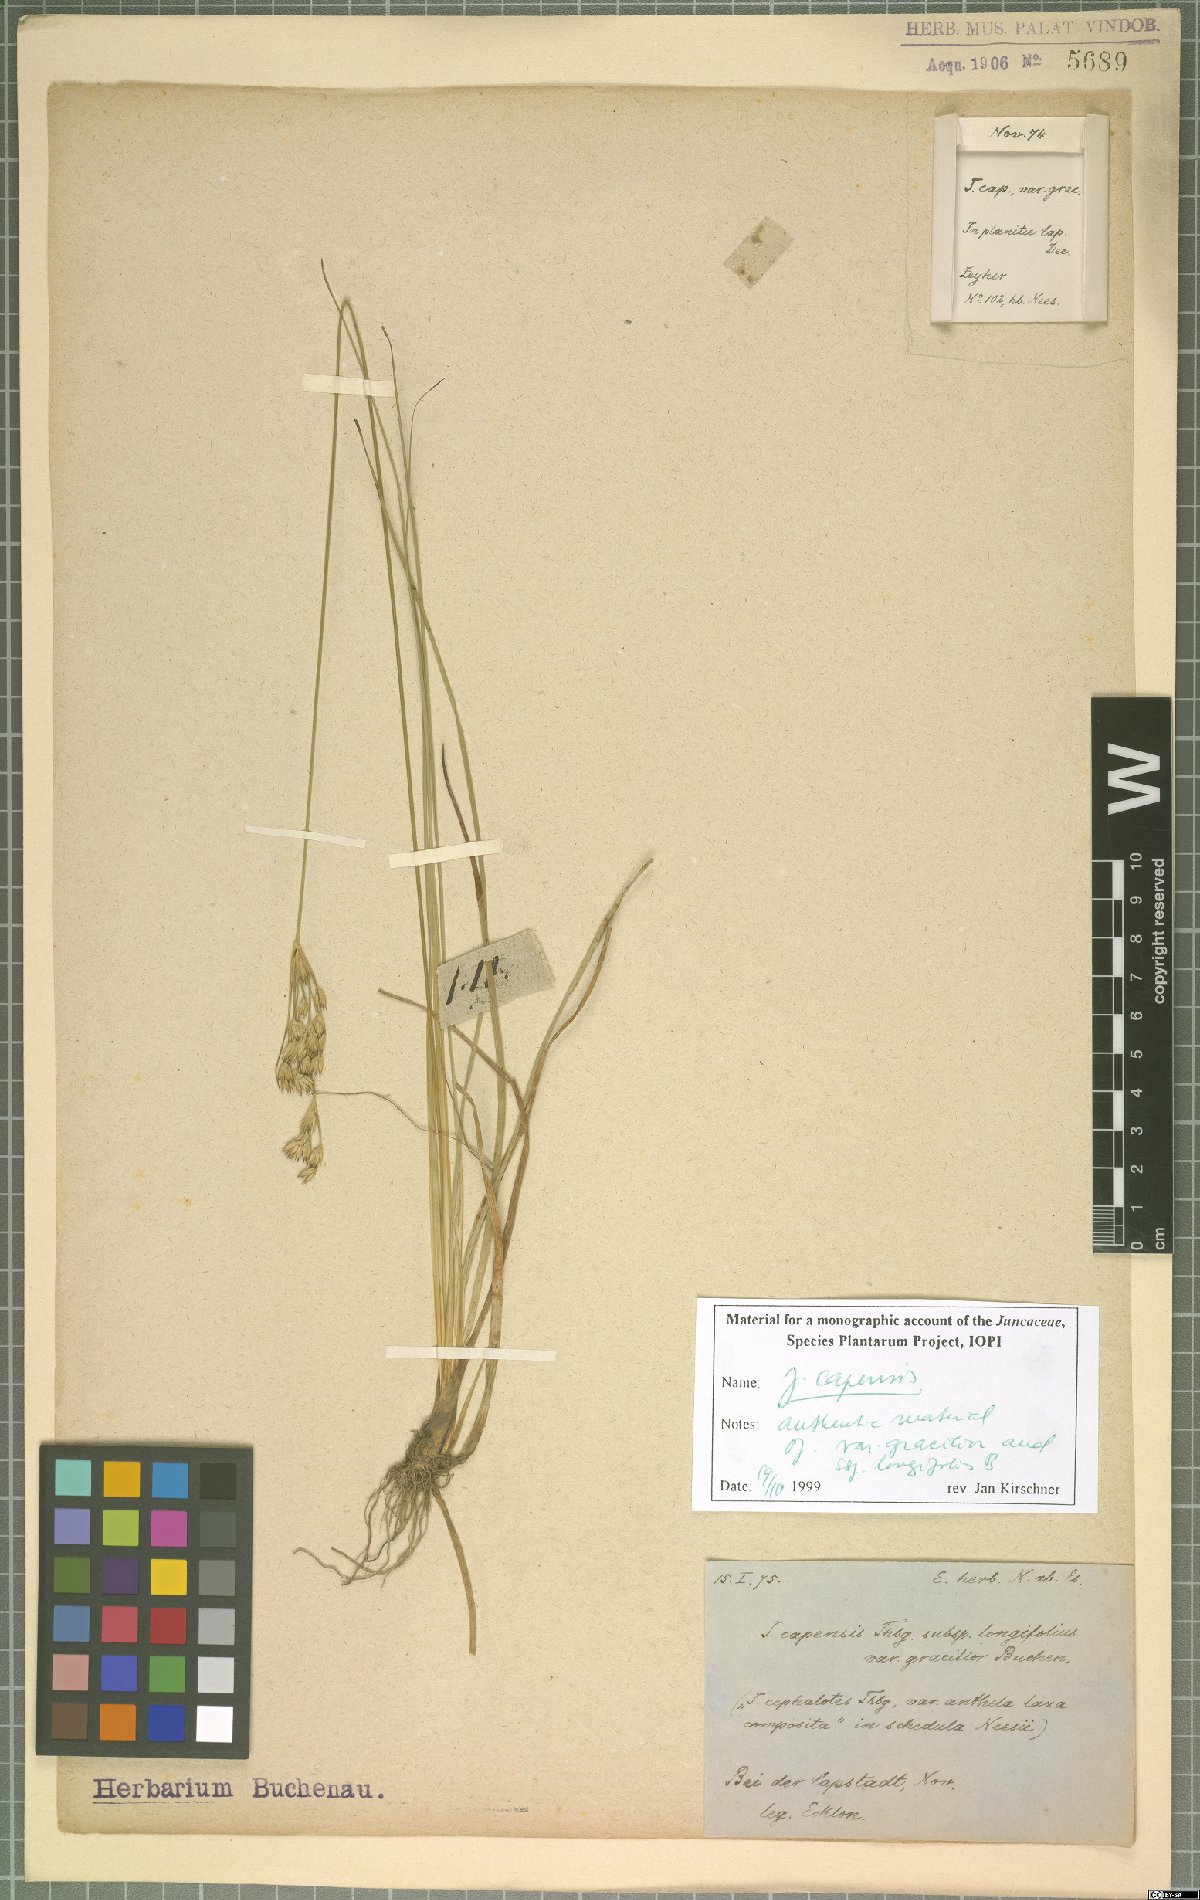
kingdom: Plantae
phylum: Tracheophyta
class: Liliopsida
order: Poales
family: Juncaceae
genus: Juncus
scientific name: Juncus capensis
